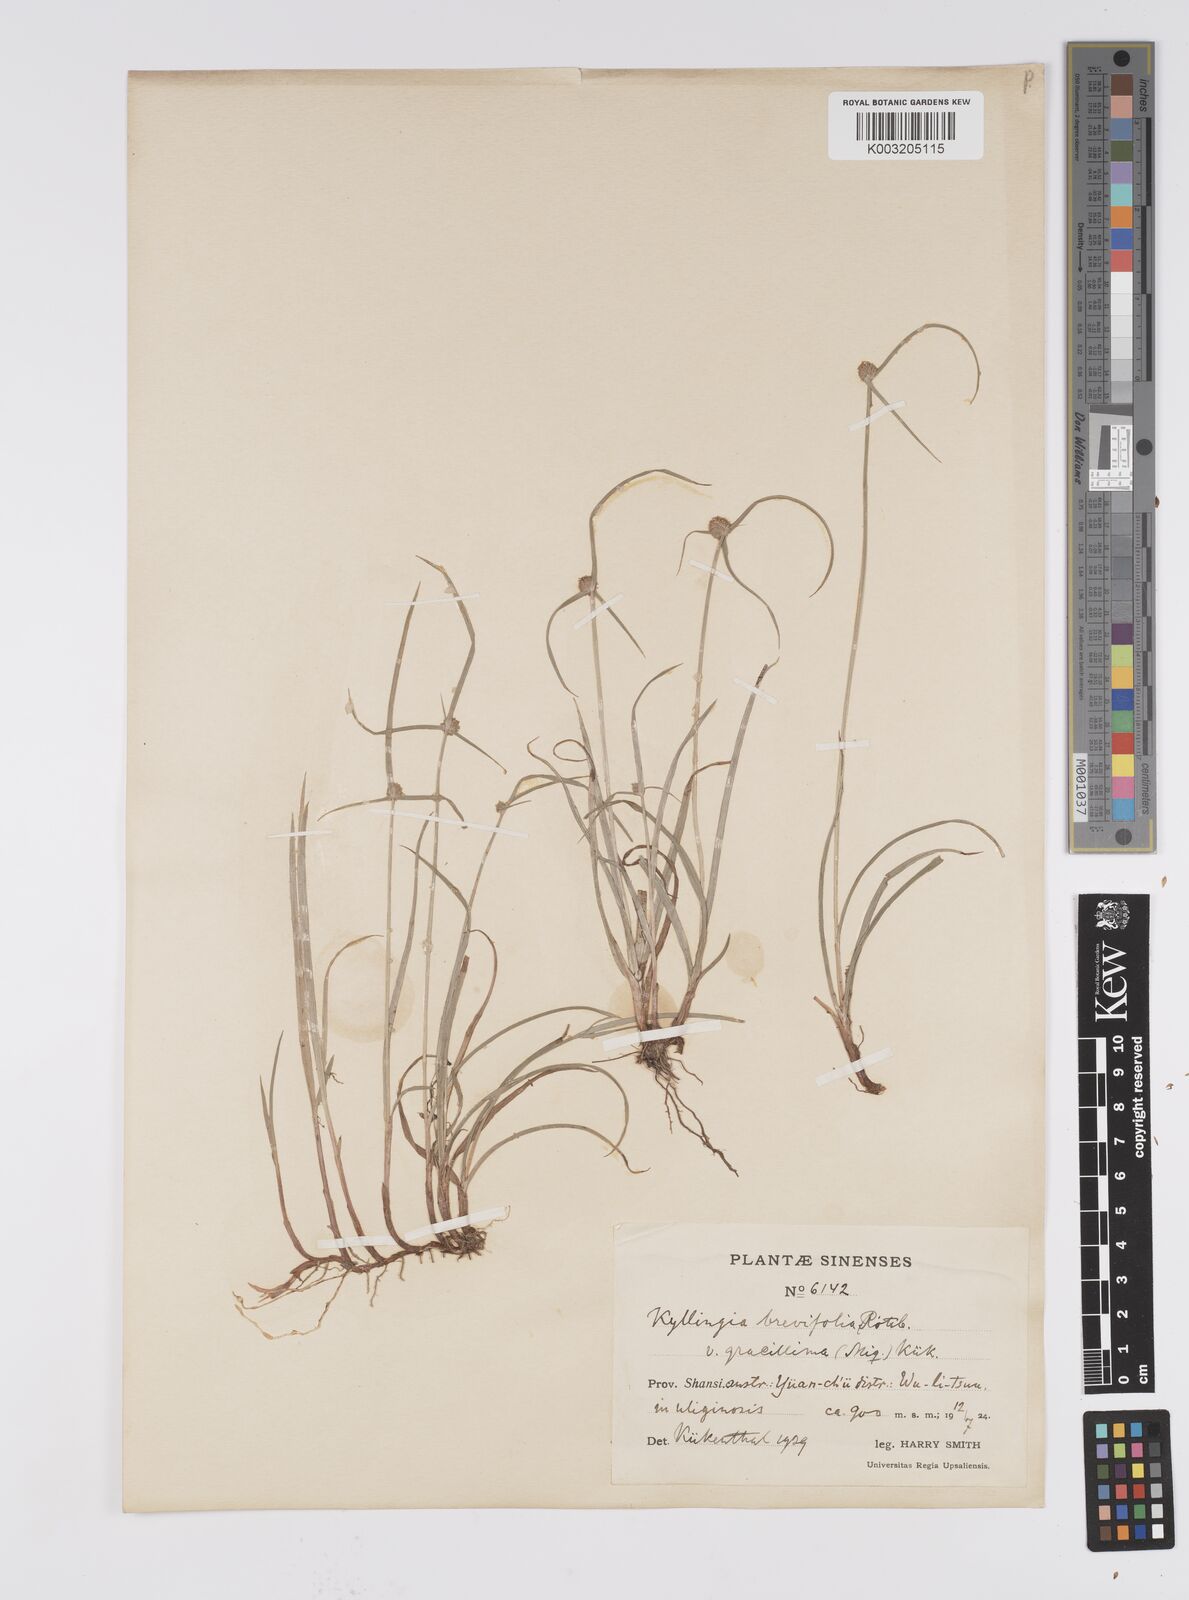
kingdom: Plantae
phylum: Tracheophyta
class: Liliopsida
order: Poales
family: Cyperaceae
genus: Cyperus
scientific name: Cyperus brevifolius
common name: Globe kyllinga
